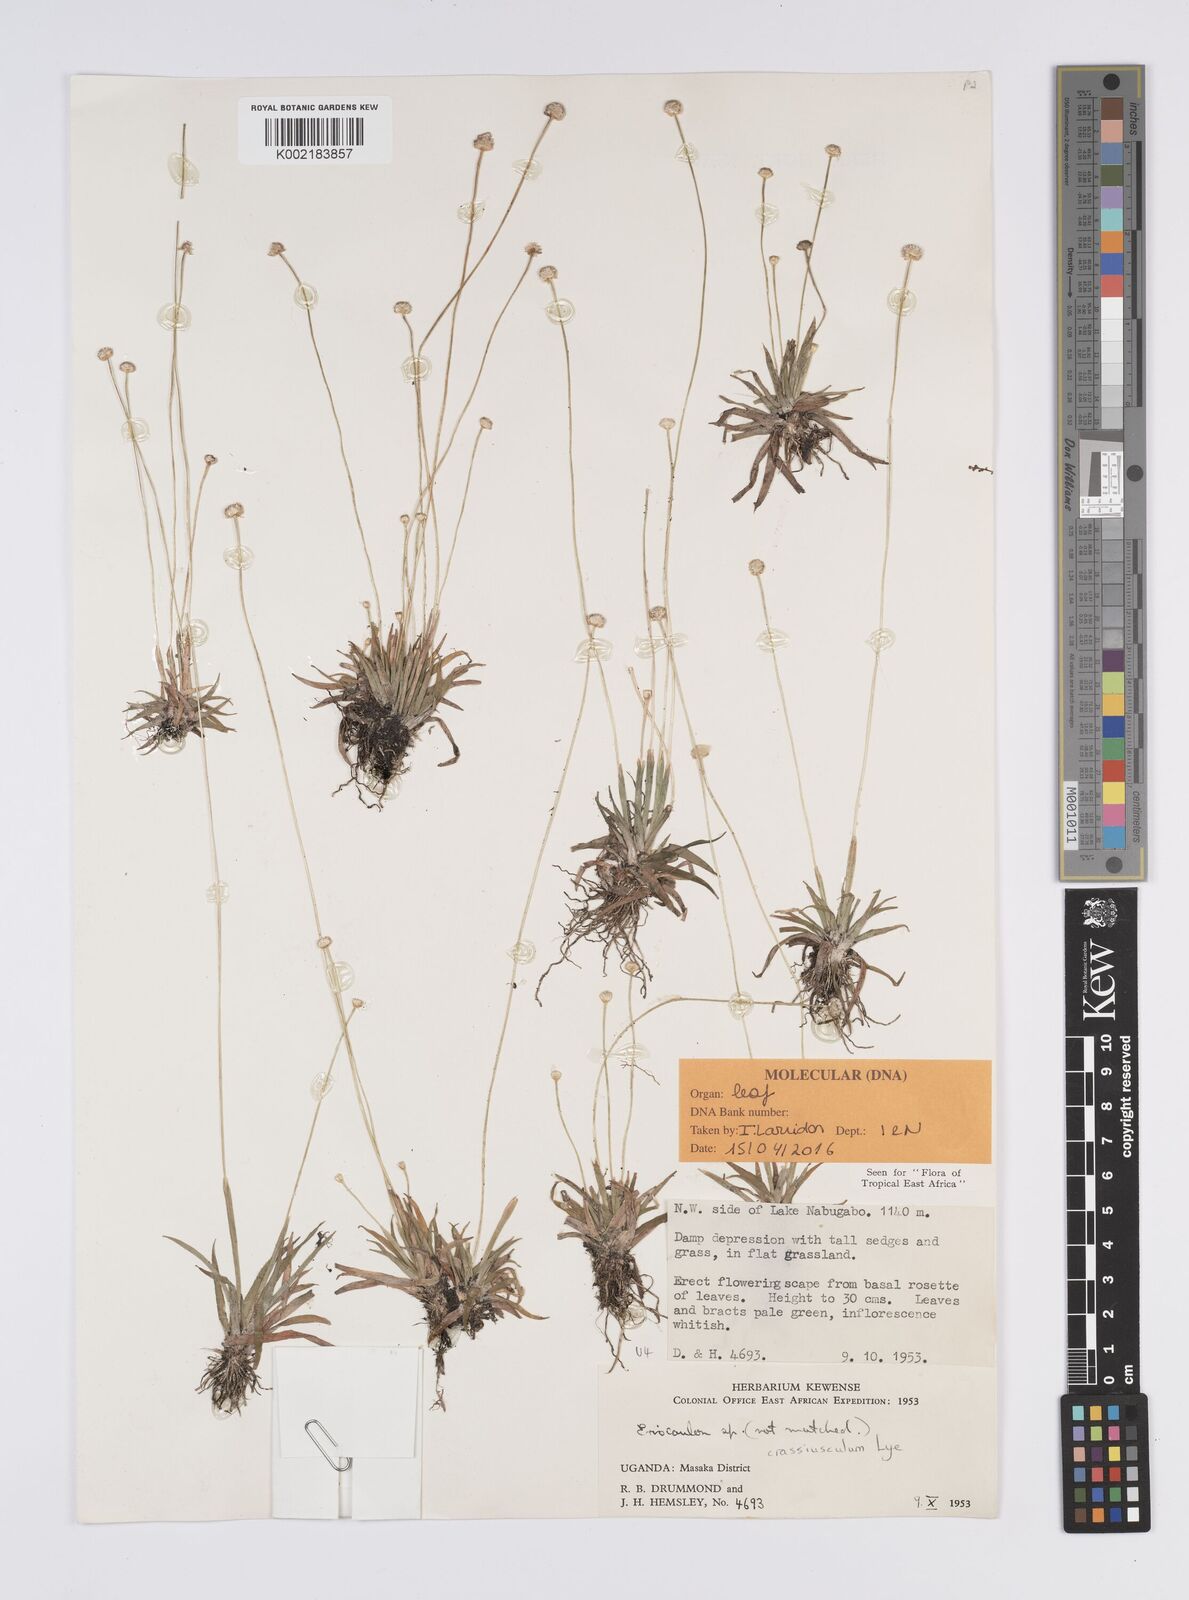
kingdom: Plantae
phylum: Tracheophyta
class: Liliopsida
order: Poales
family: Eriocaulaceae
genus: Eriocaulon
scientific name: Eriocaulon crassiusculum
